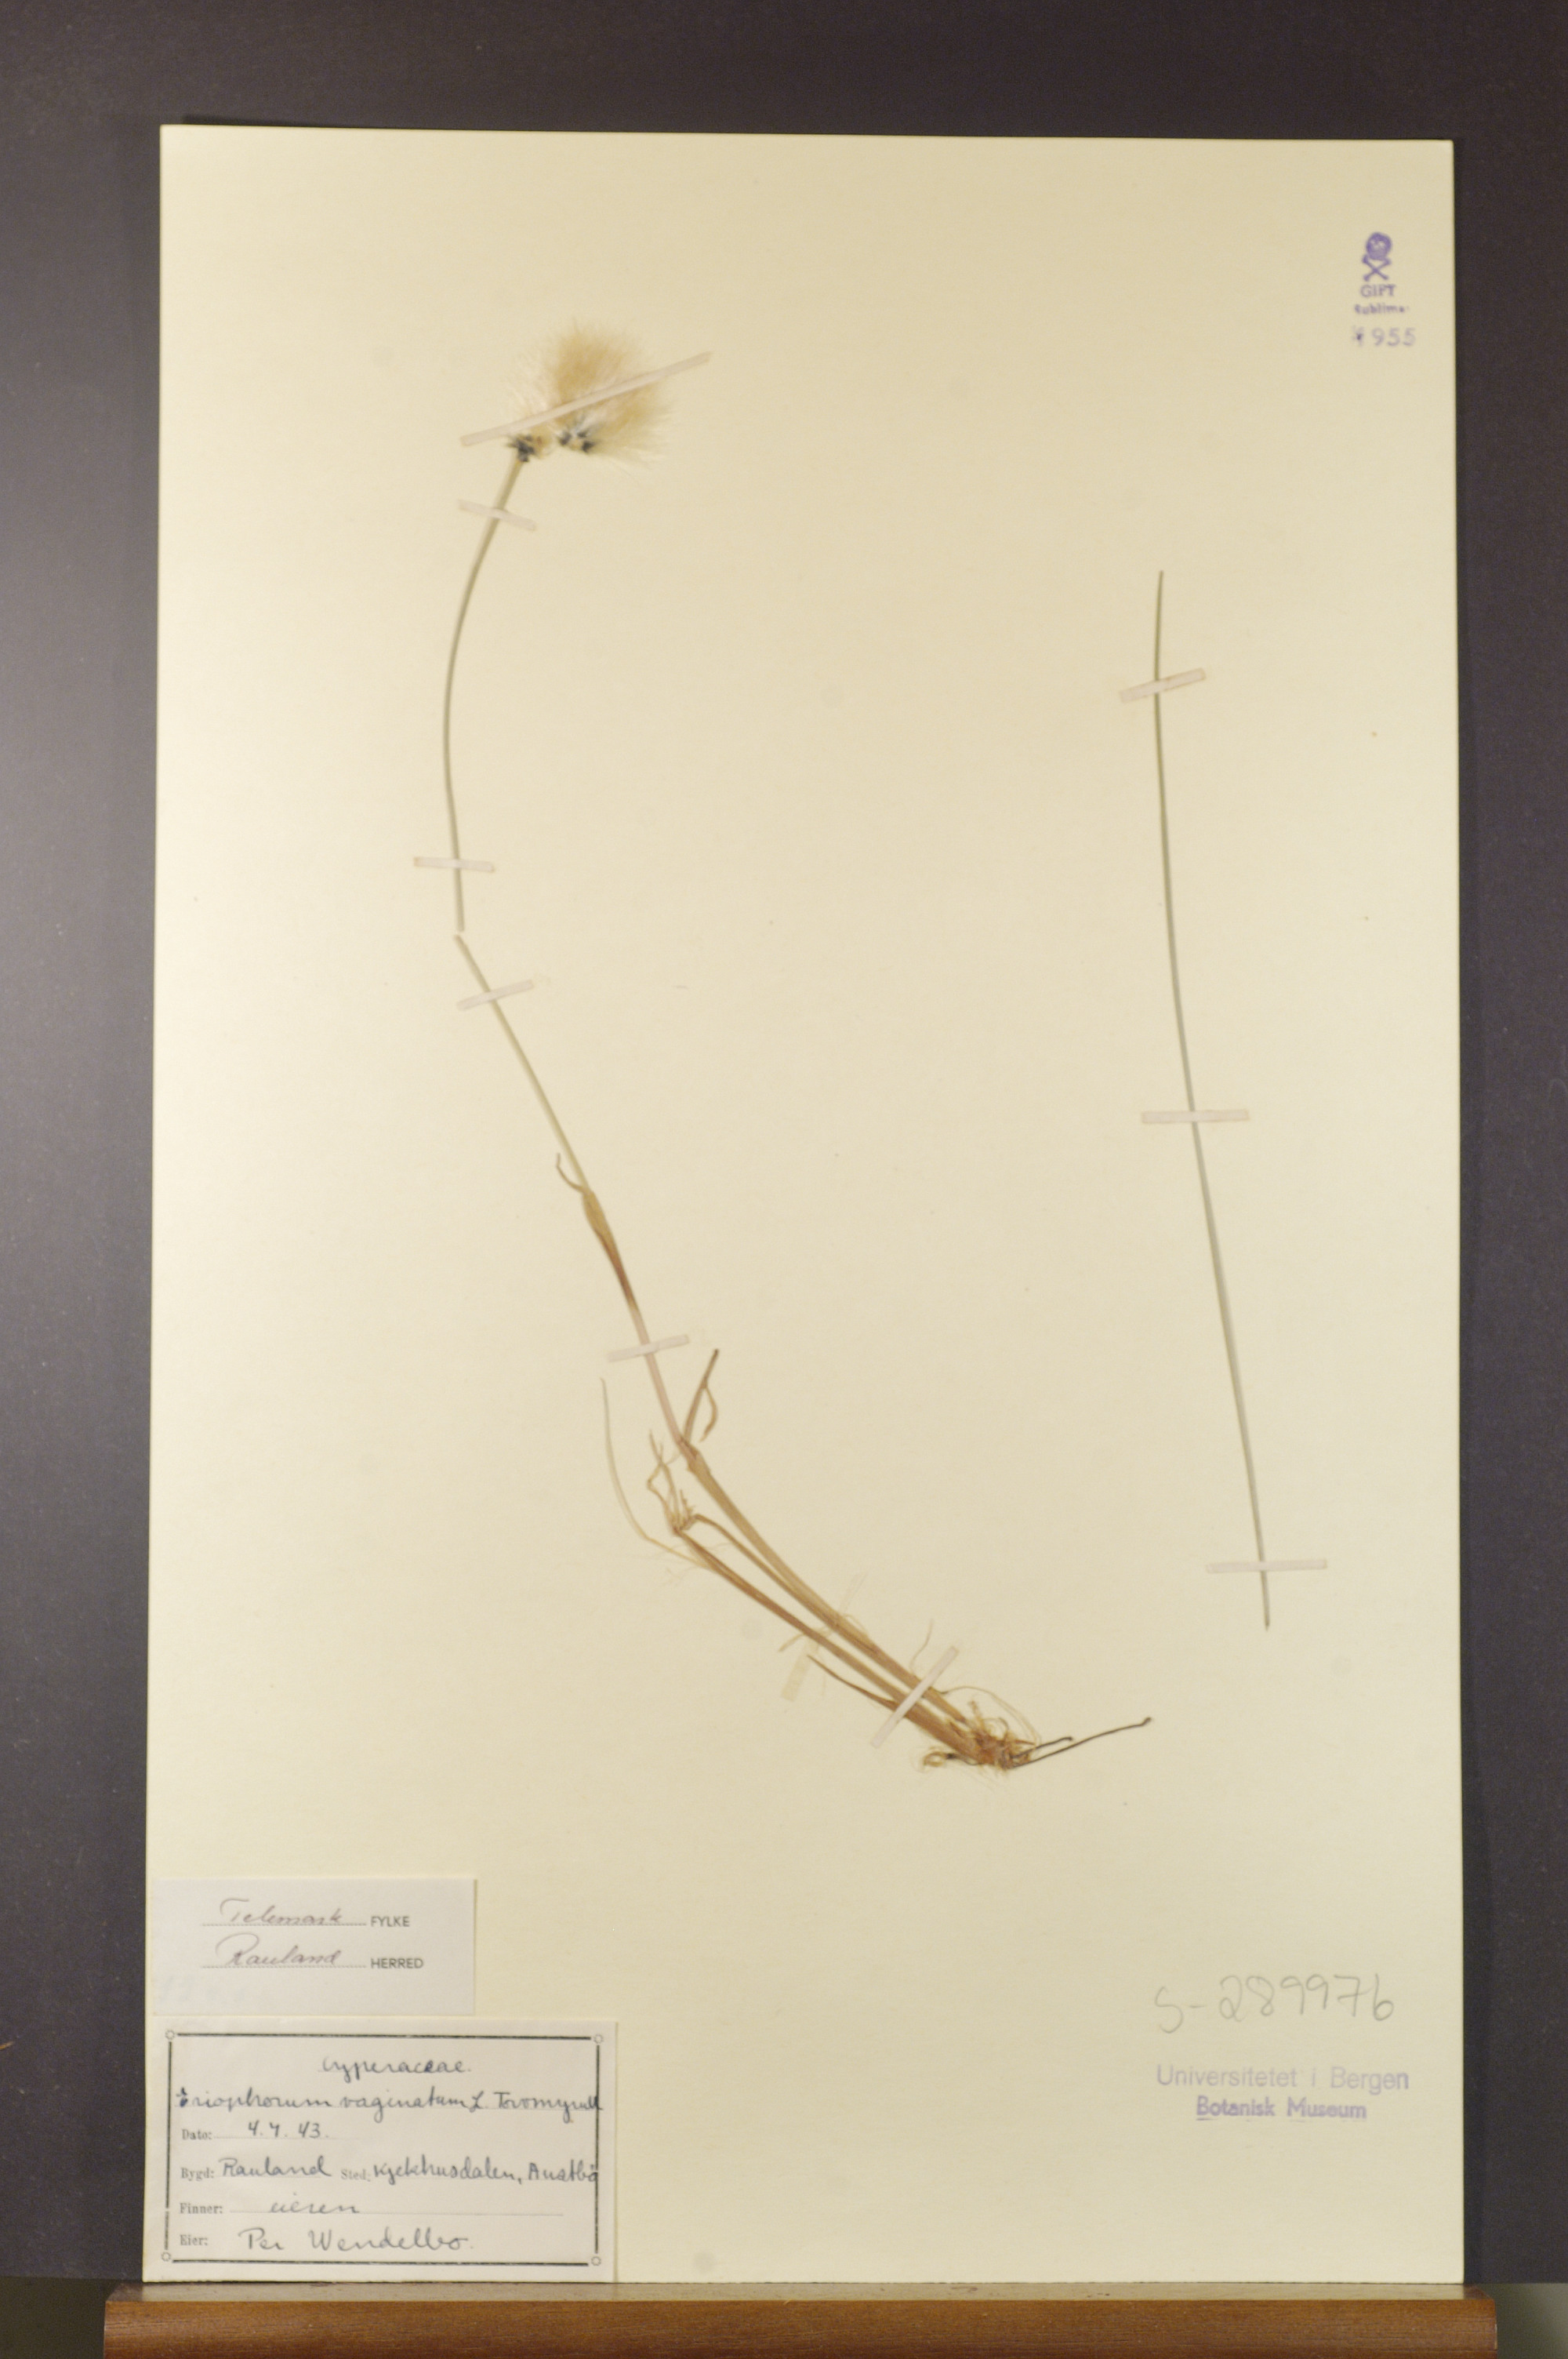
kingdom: Plantae
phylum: Tracheophyta
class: Liliopsida
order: Poales
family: Cyperaceae
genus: Eriophorum
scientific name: Eriophorum vaginatum
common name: Hare's-tail cottongrass
